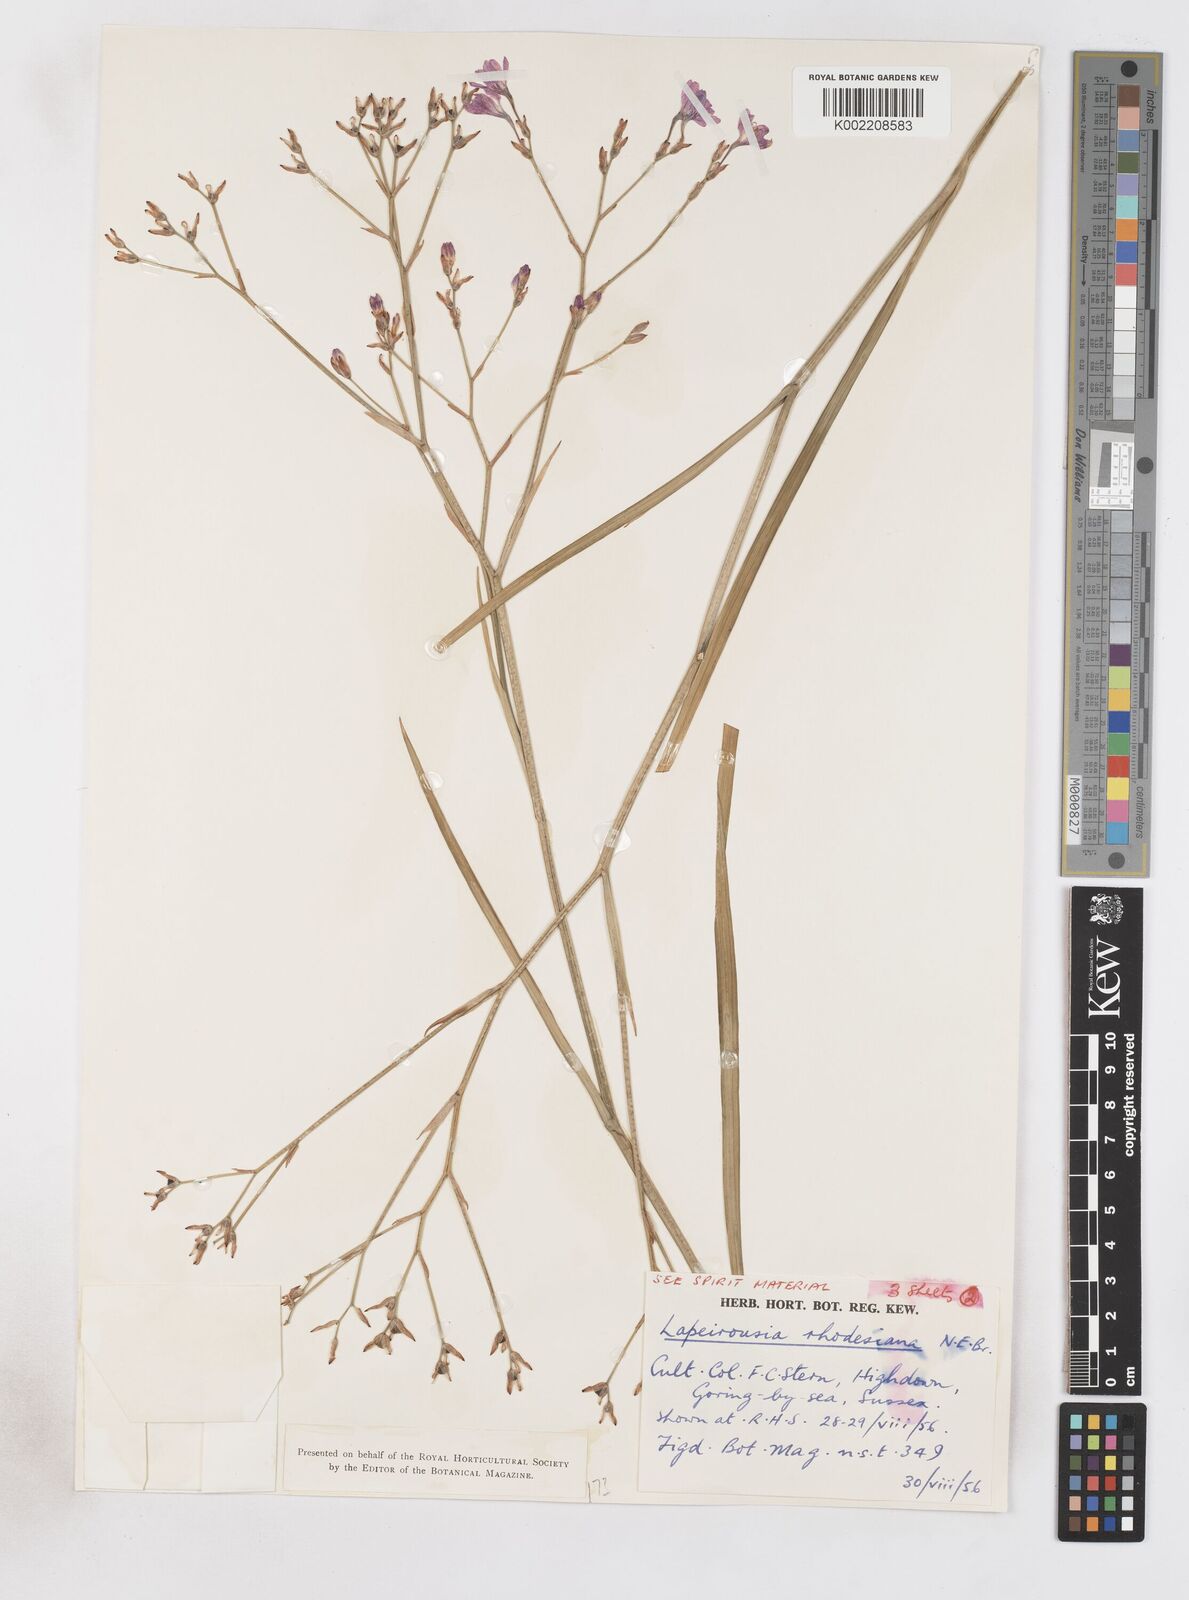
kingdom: Plantae
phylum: Tracheophyta
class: Liliopsida
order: Asparagales
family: Iridaceae
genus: Lapeirousia
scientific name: Lapeirousia
